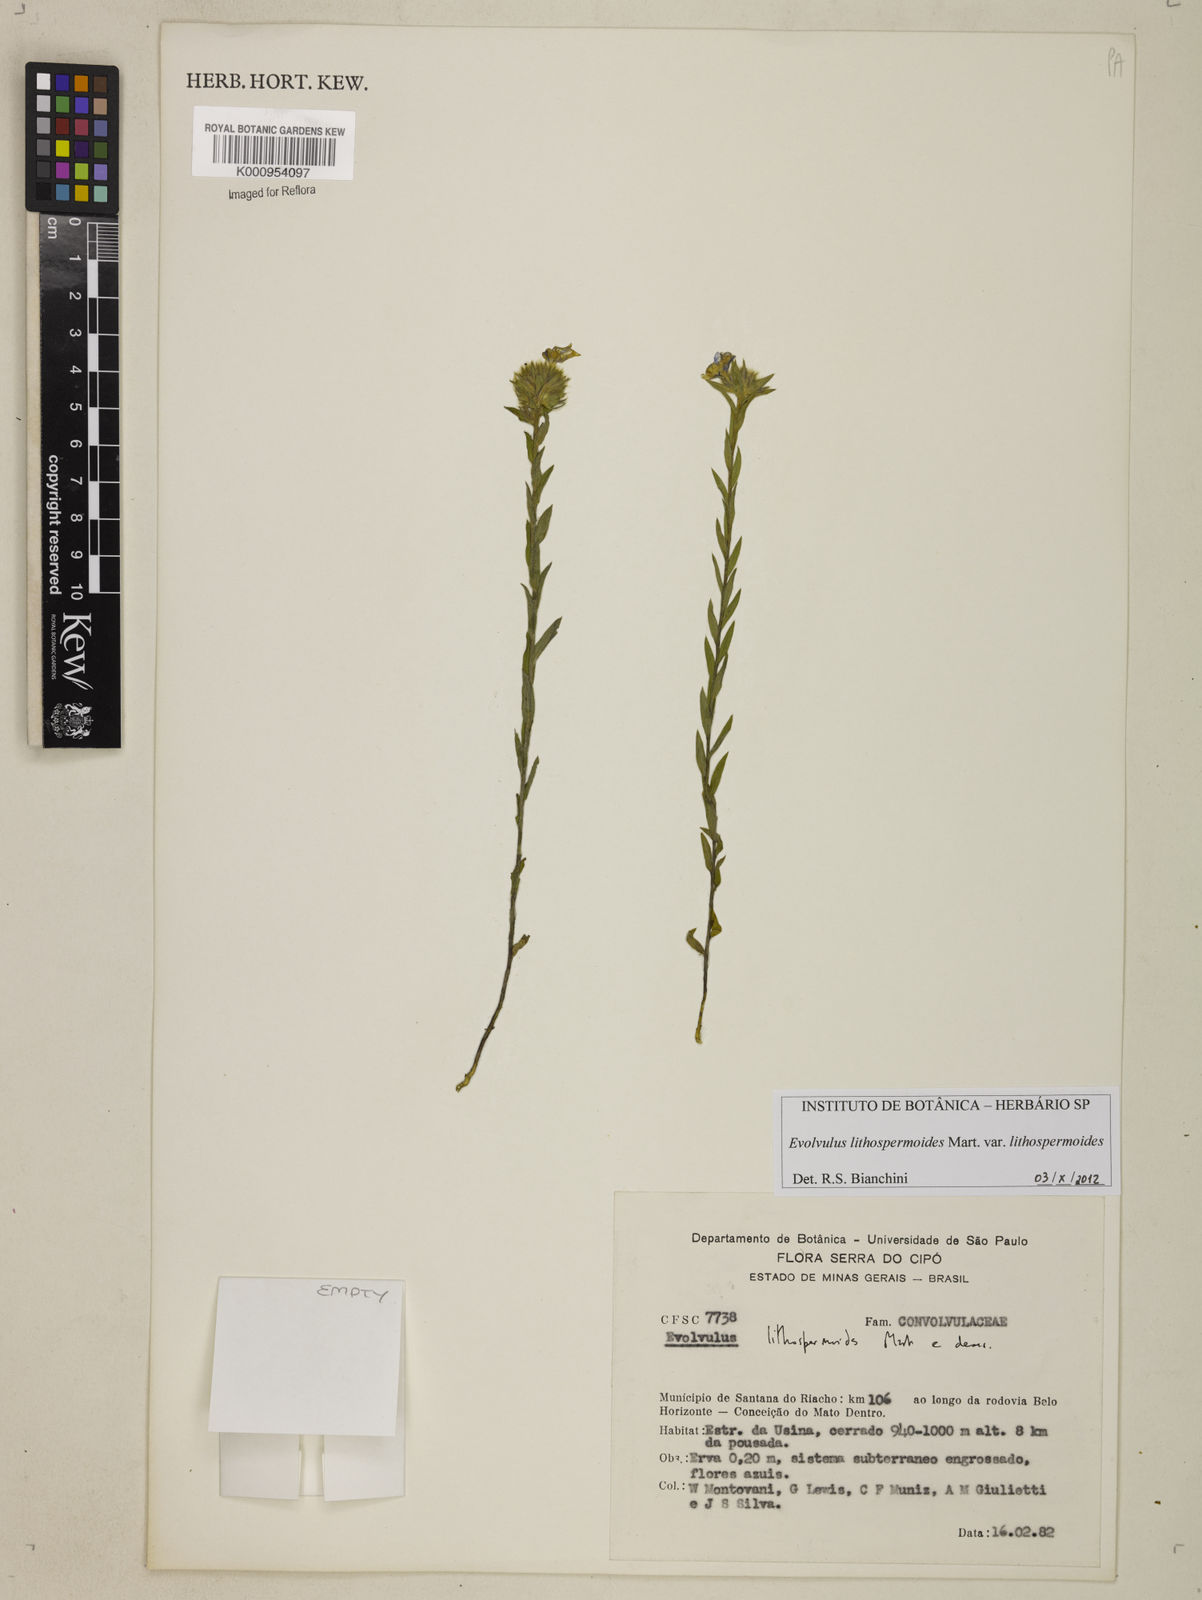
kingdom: Plantae
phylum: Tracheophyta
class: Magnoliopsida
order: Solanales
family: Convolvulaceae
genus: Evolvulus
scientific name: Evolvulus lithospermoides
